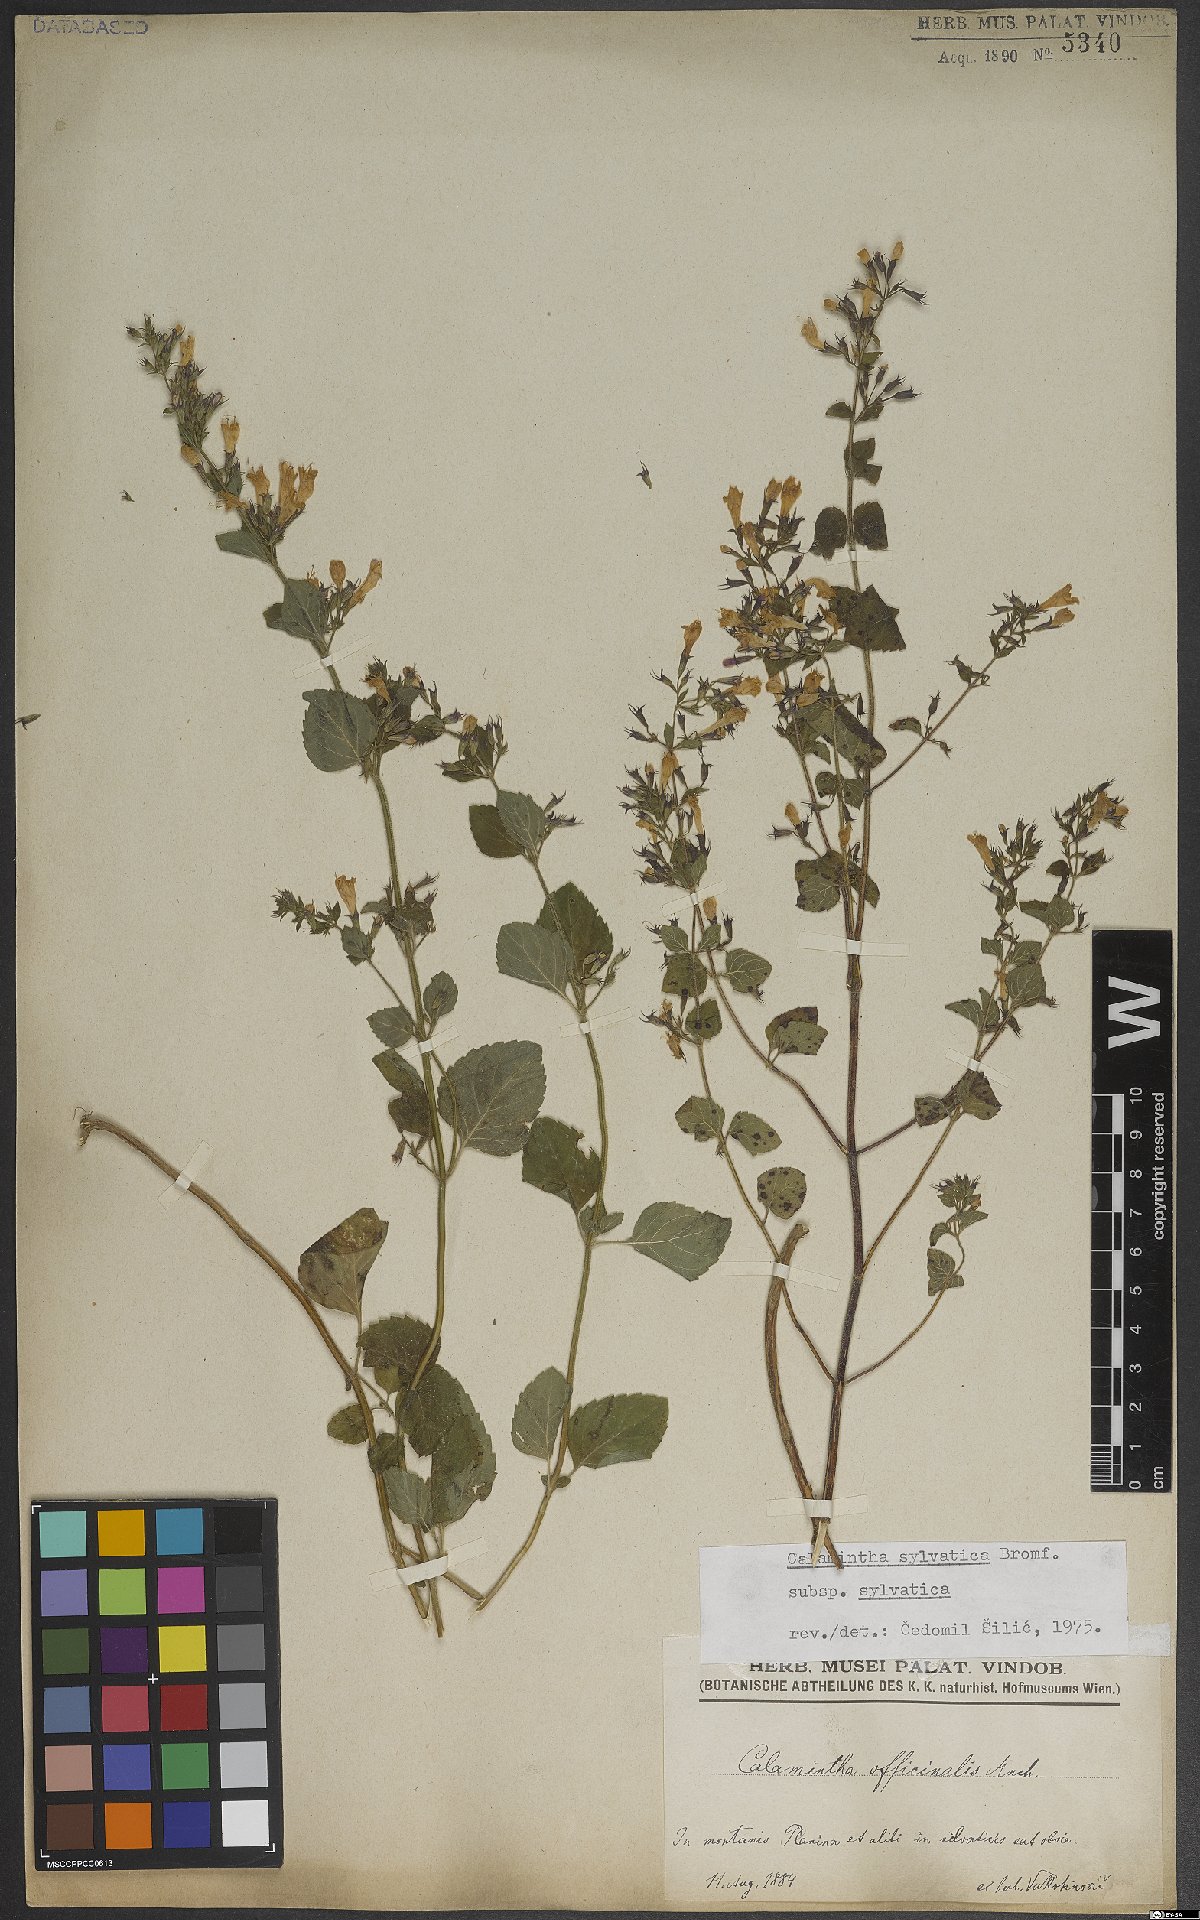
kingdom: Plantae
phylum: Tracheophyta
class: Magnoliopsida
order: Lamiales
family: Lamiaceae
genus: Clinopodium
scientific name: Clinopodium menthifolium
